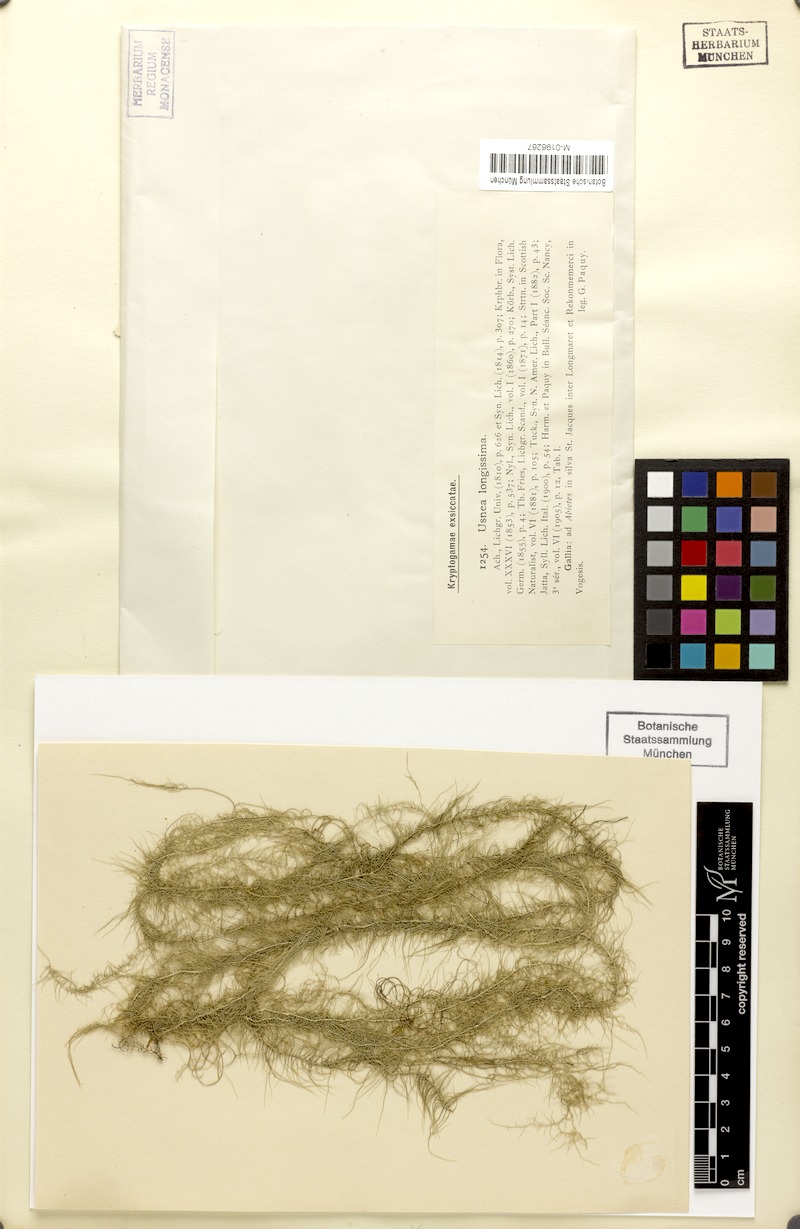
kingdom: Fungi
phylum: Ascomycota
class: Lecanoromycetes
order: Lecanorales
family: Parmeliaceae
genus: Dolichousnea
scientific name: Dolichousnea longissima
